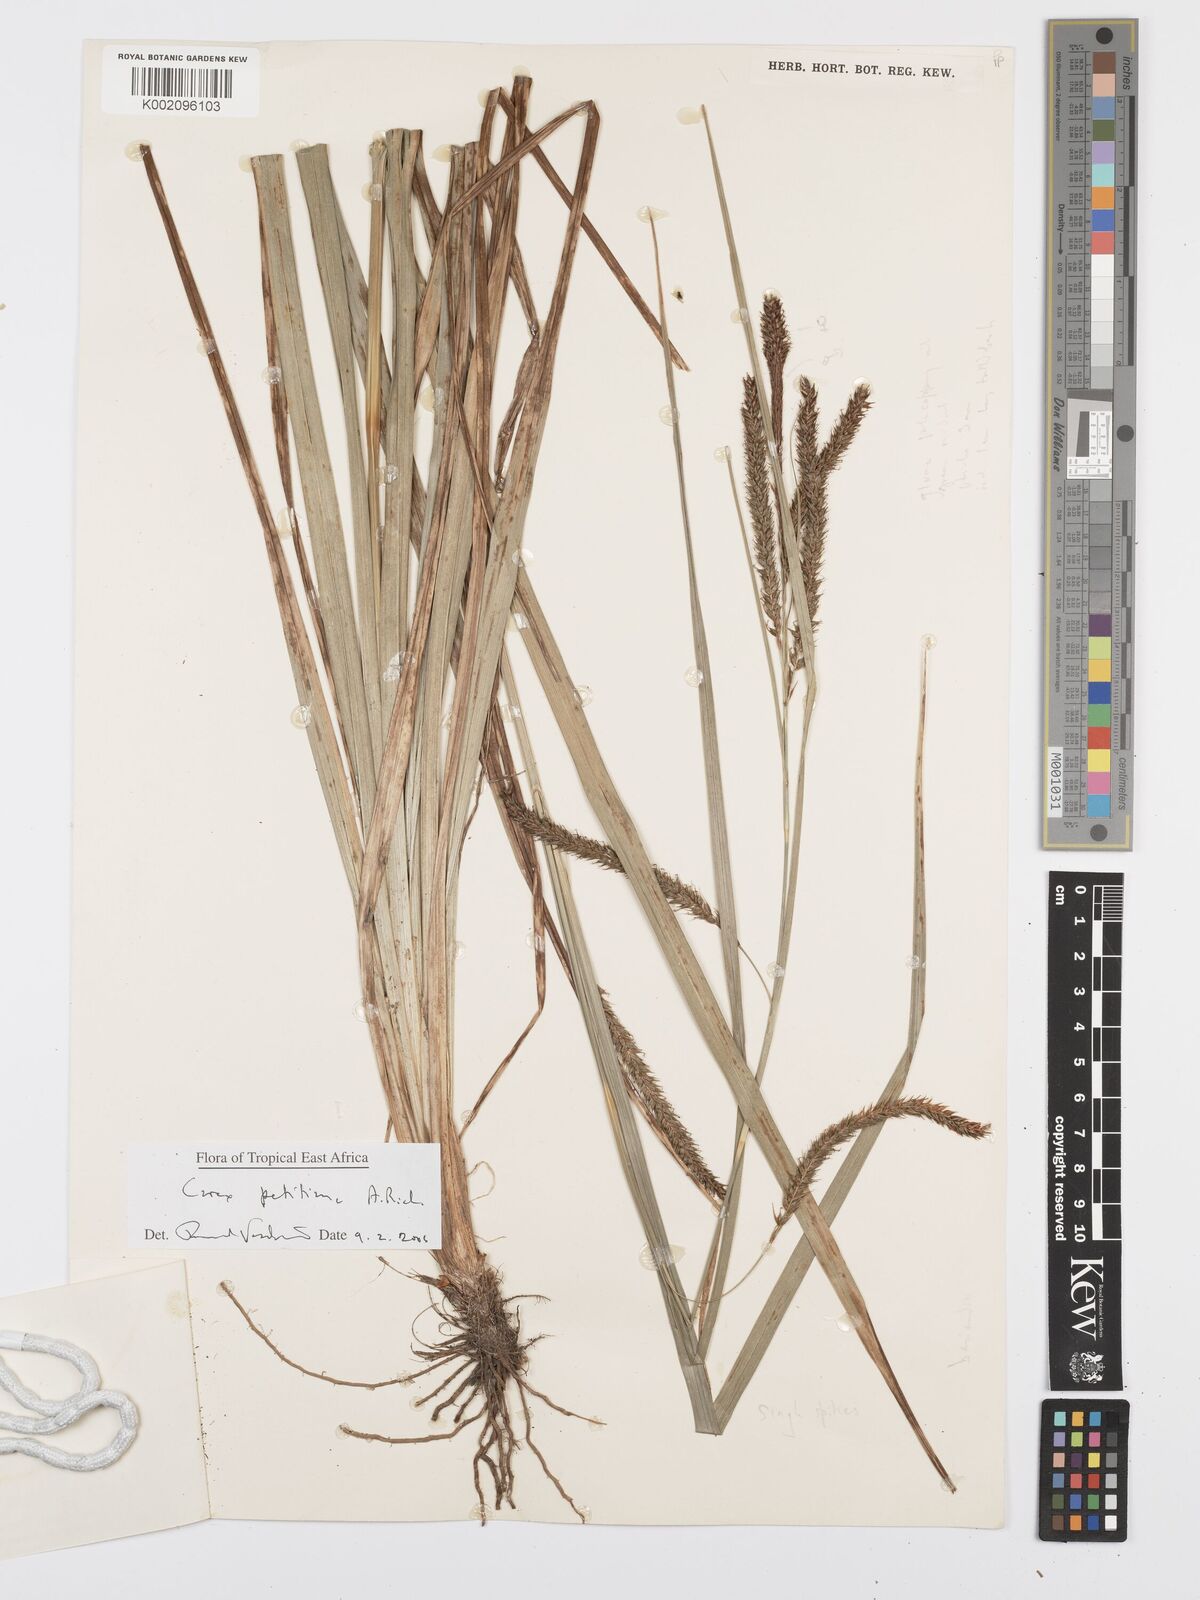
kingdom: Plantae
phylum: Tracheophyta
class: Liliopsida
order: Poales
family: Cyperaceae
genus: Carex
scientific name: Carex petitiana
